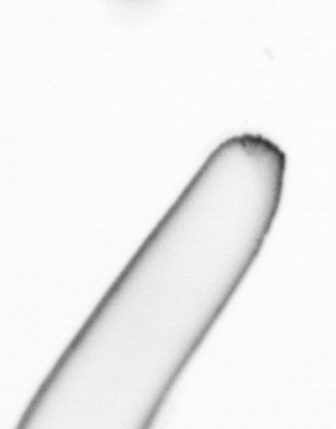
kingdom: Chromista
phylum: Ochrophyta
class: Bacillariophyceae
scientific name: Bacillariophyceae
